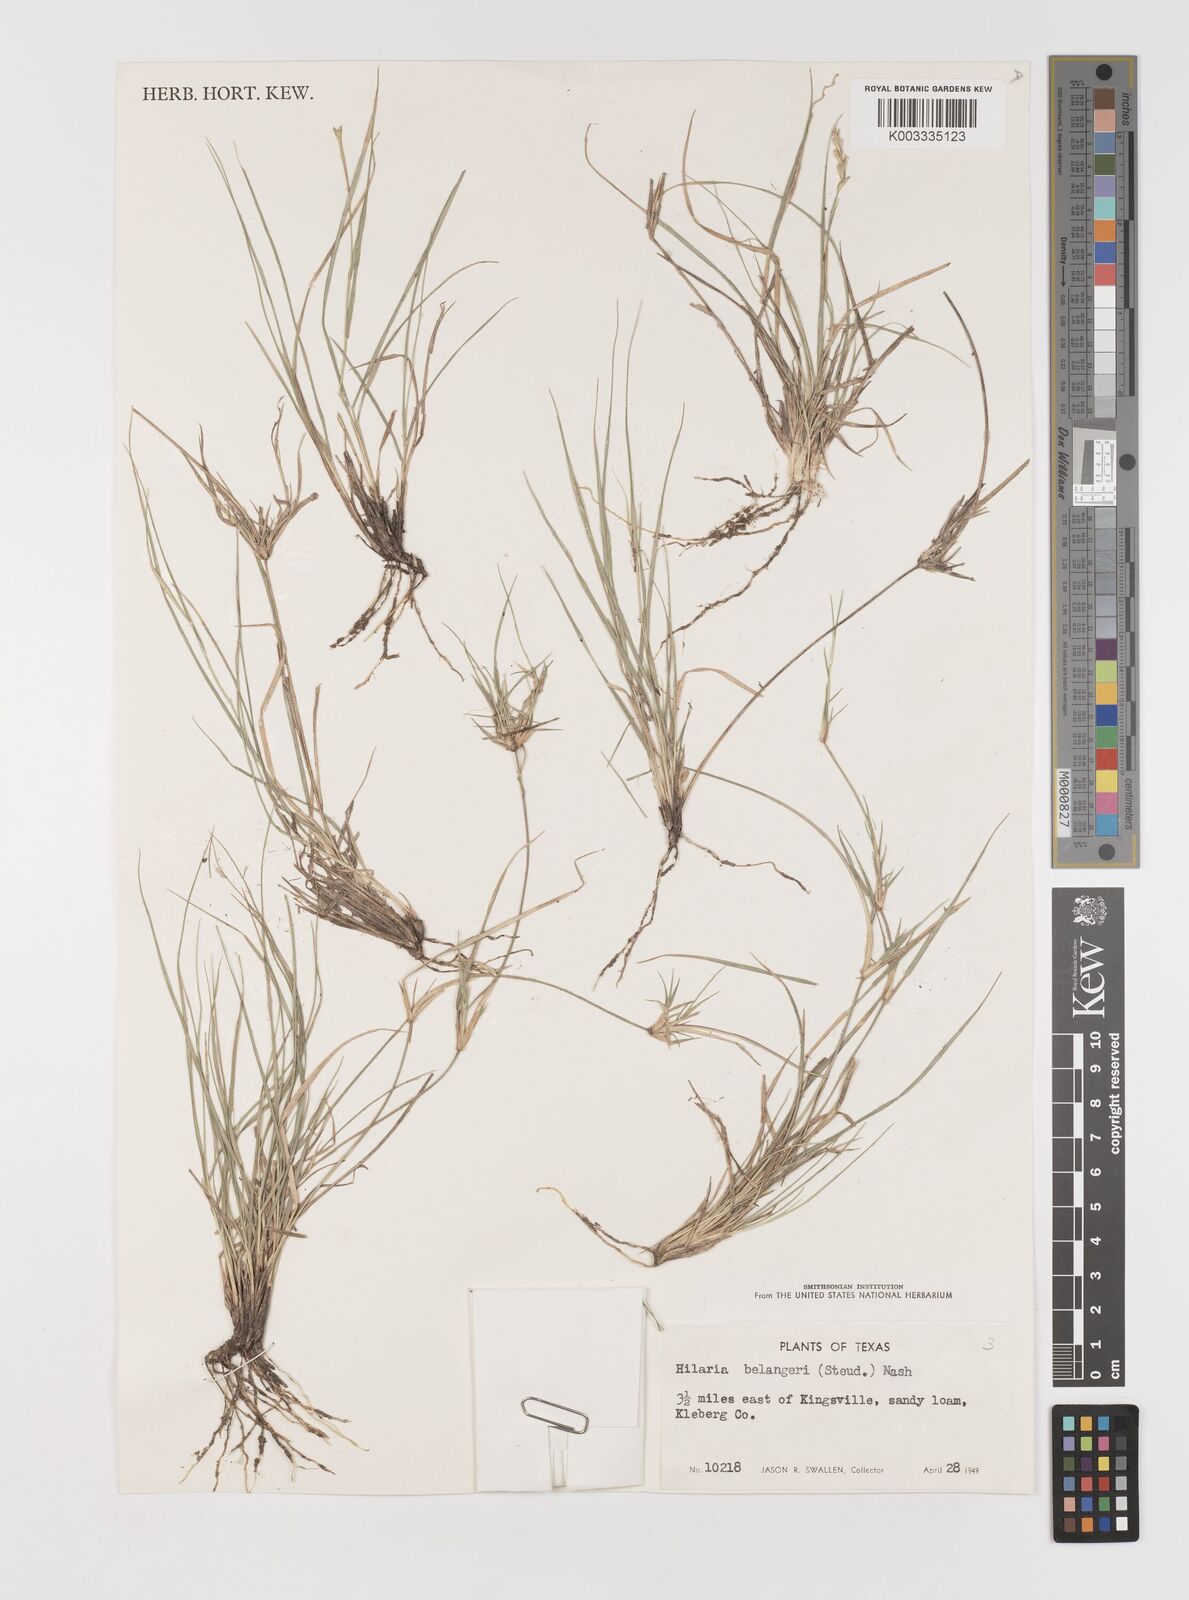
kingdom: Plantae
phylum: Tracheophyta
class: Liliopsida
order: Poales
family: Poaceae
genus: Hilaria
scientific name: Hilaria belangeri
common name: Curly-mesquite
